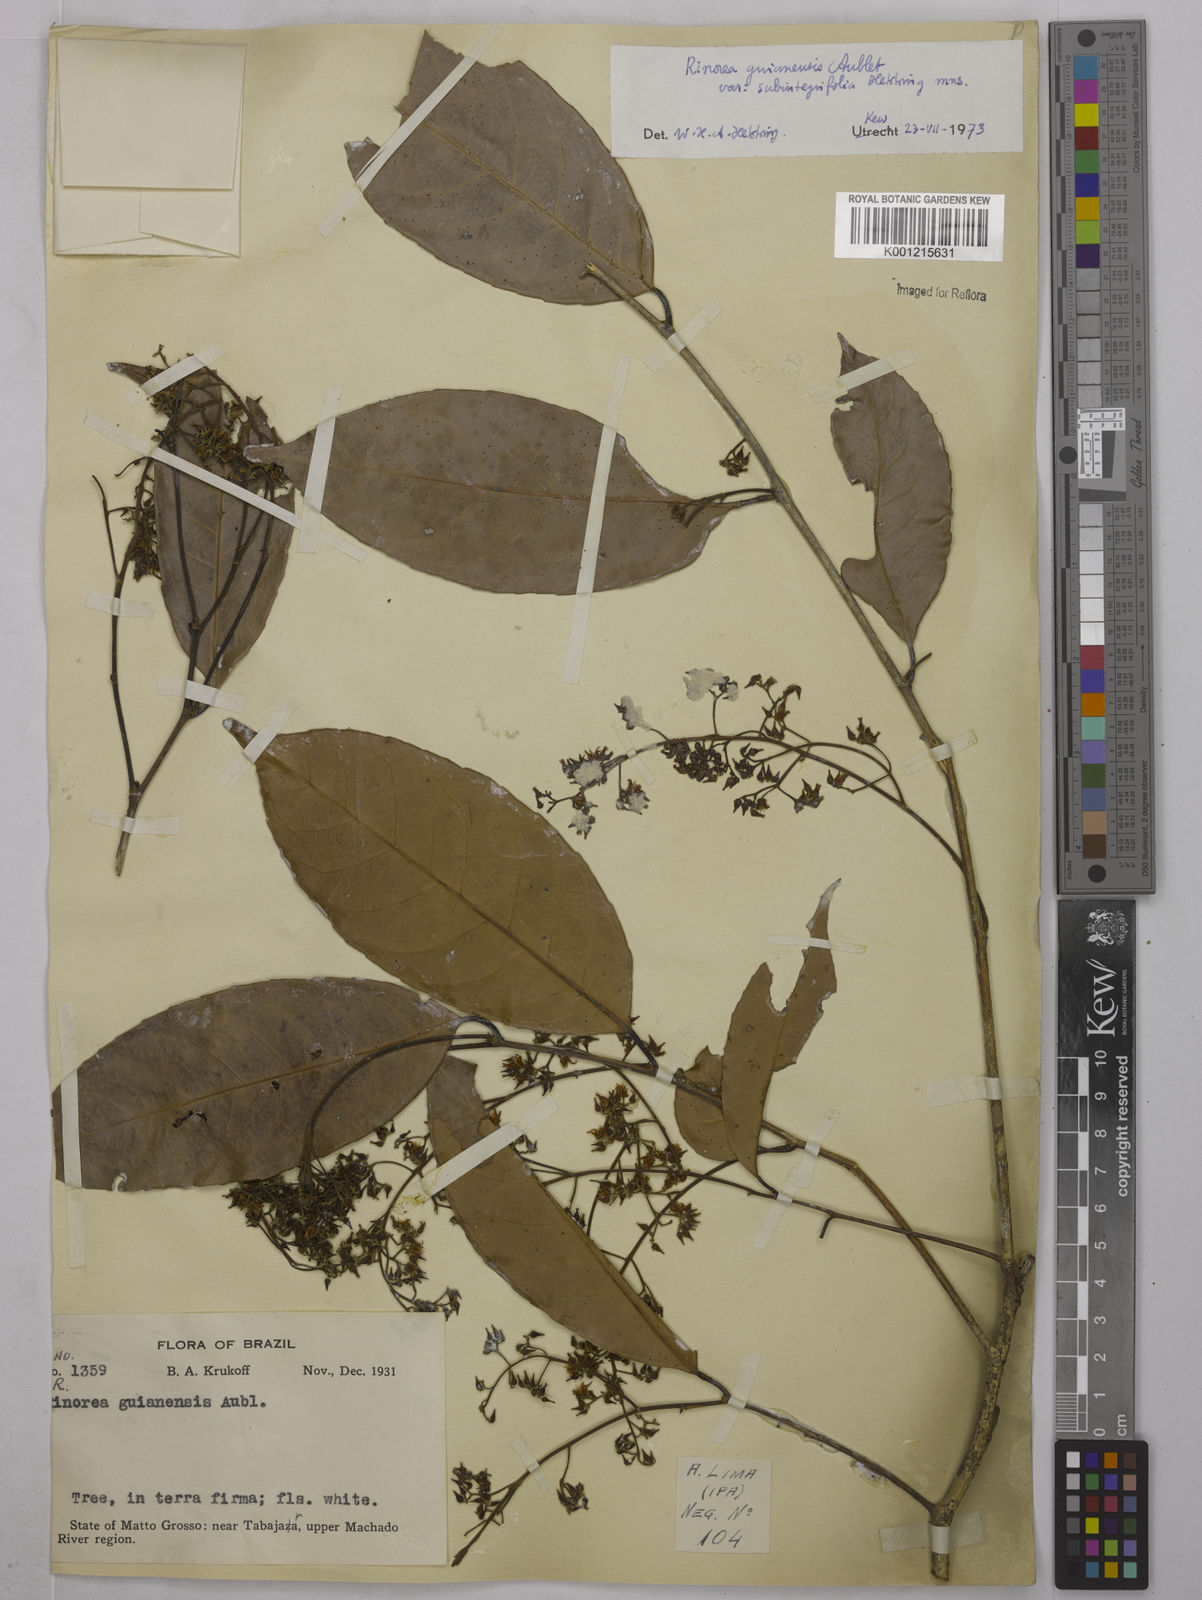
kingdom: Plantae
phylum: Tracheophyta
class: Magnoliopsida
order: Malpighiales
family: Violaceae
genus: Rinorea
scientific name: Rinorea guianensis
